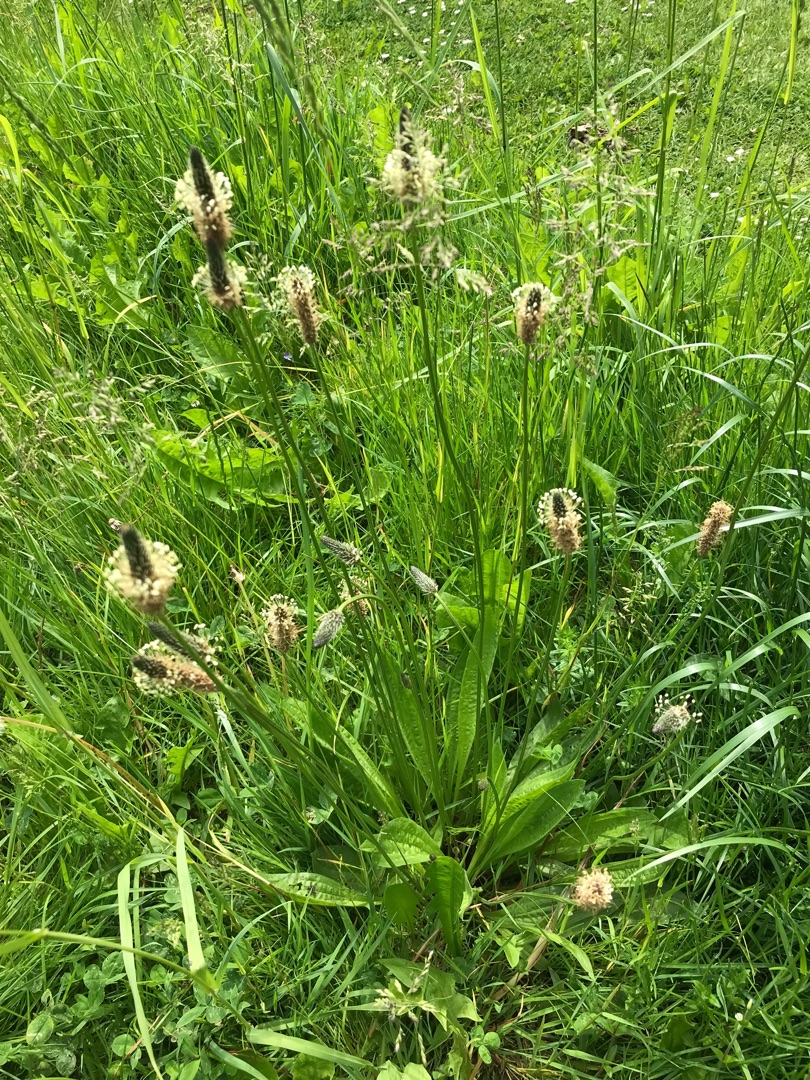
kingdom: Plantae
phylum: Tracheophyta
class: Magnoliopsida
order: Lamiales
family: Plantaginaceae
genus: Plantago
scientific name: Plantago lanceolata
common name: Lancet-vejbred
